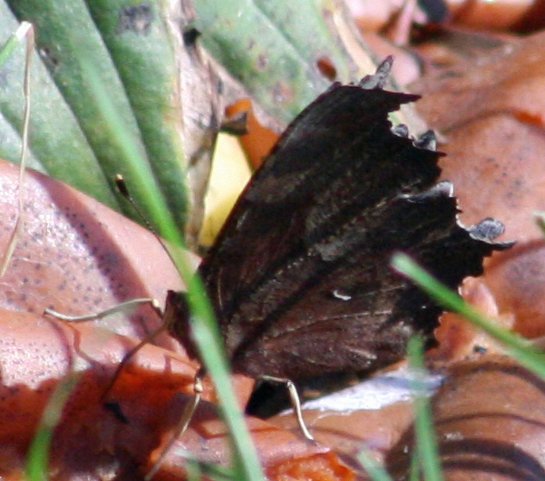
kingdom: Animalia
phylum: Arthropoda
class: Insecta
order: Lepidoptera
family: Nymphalidae
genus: Polygonia
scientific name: Polygonia
